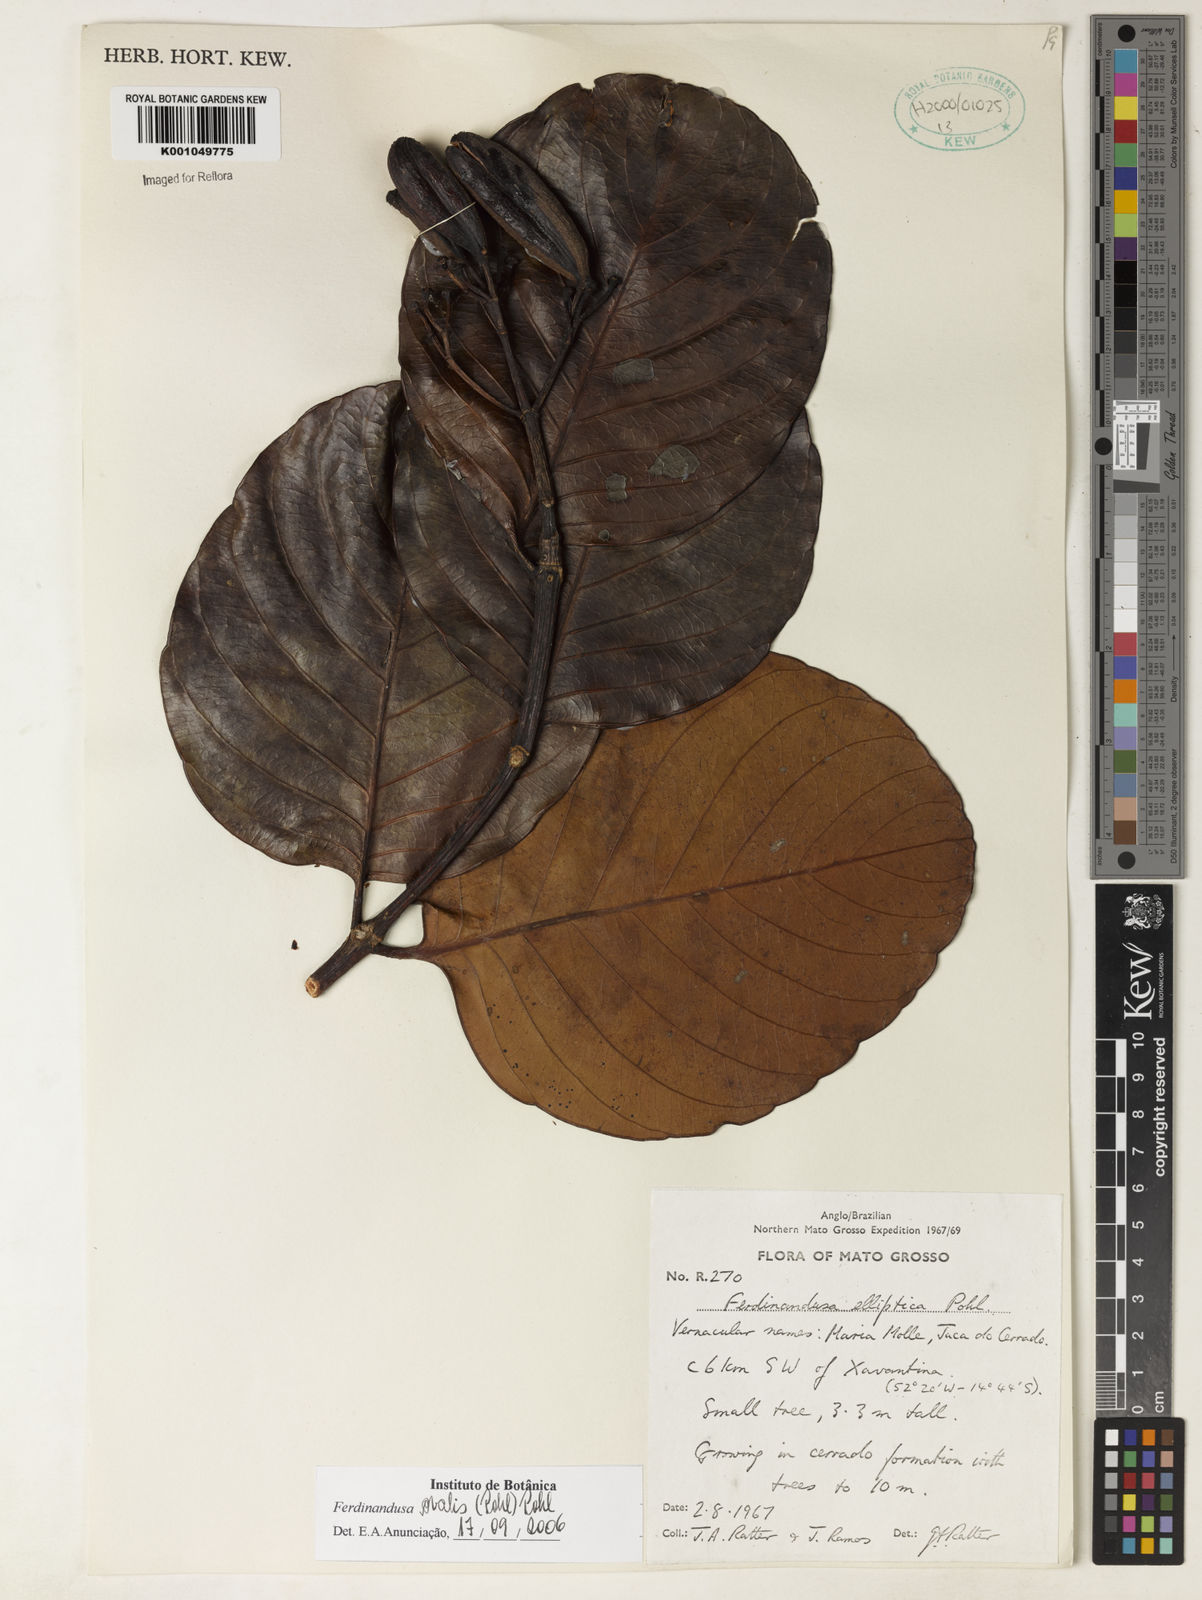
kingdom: Plantae
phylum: Tracheophyta
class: Magnoliopsida
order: Gentianales
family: Rubiaceae
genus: Ferdinandusa
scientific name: Ferdinandusa elliptica
